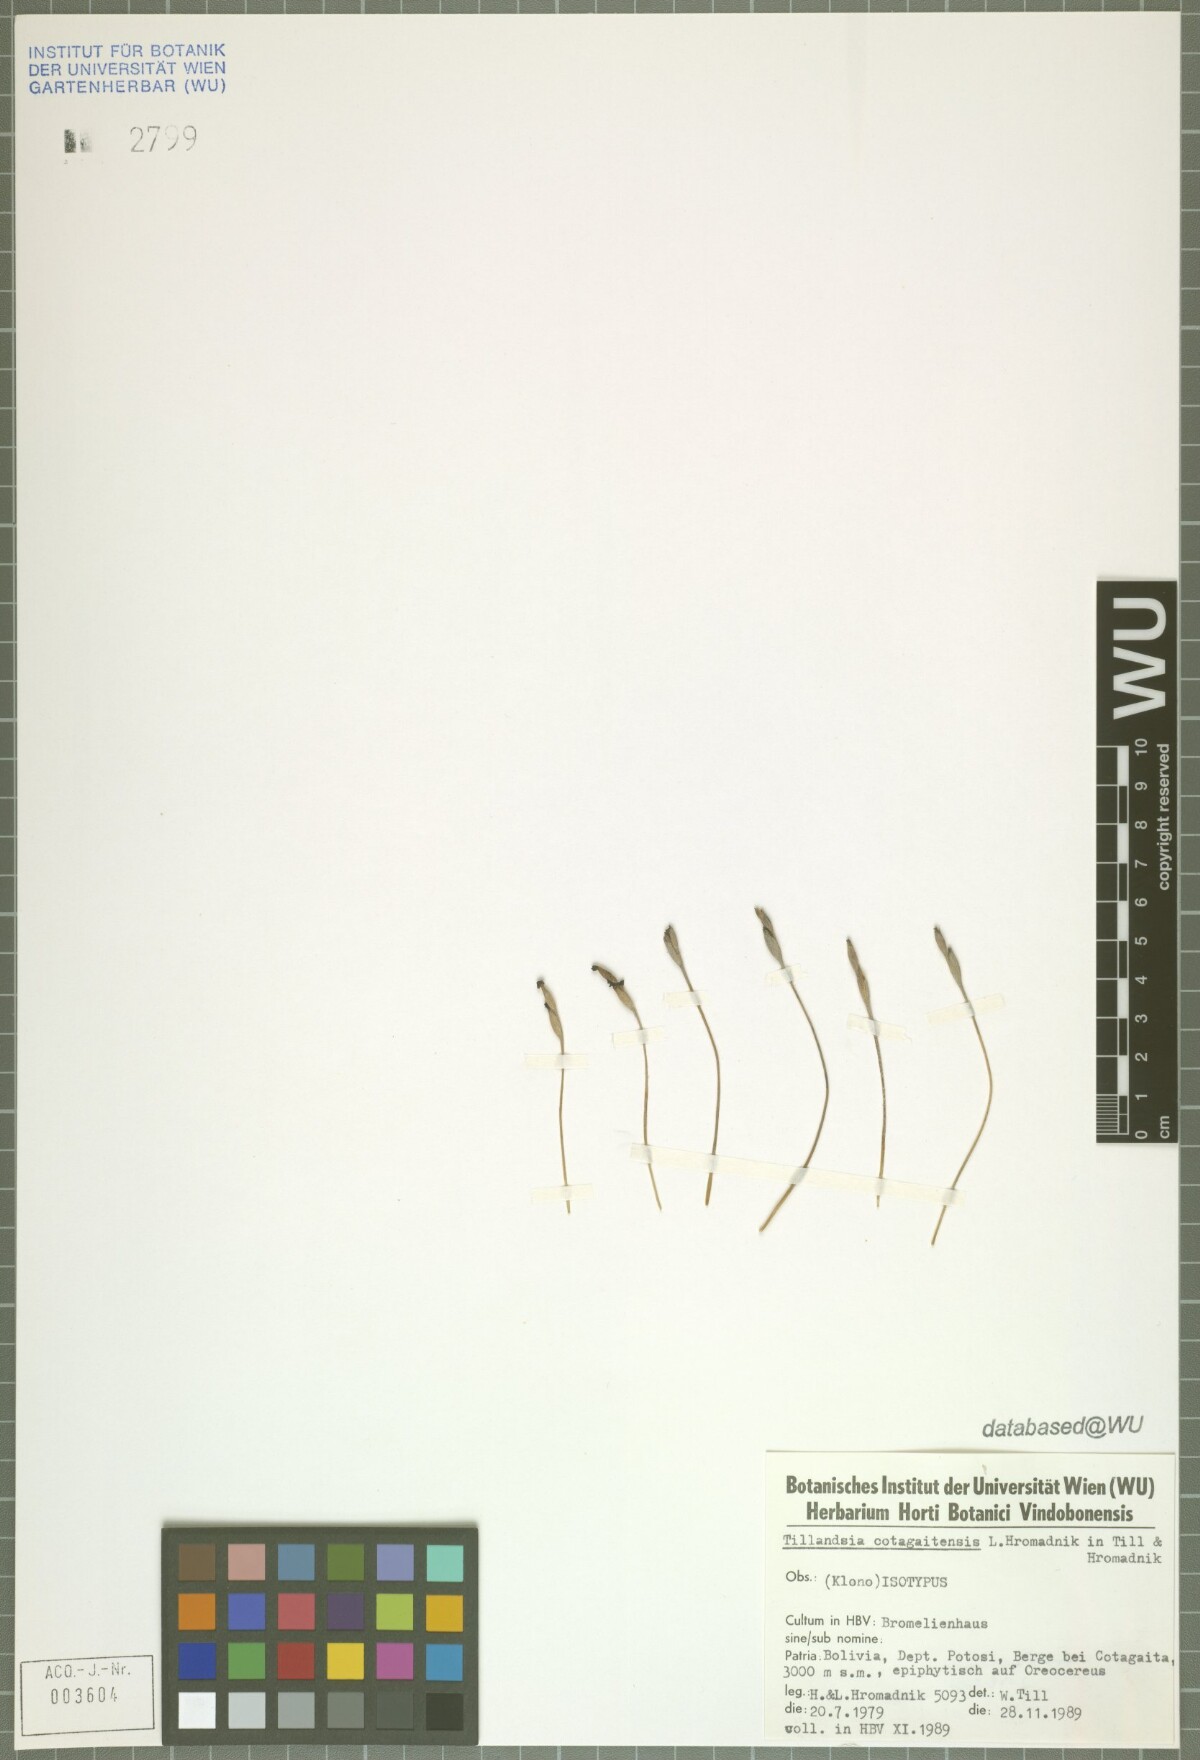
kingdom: Plantae
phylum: Tracheophyta
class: Liliopsida
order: Poales
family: Bromeliaceae
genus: Tillandsia
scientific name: Tillandsia cotagaitensis
